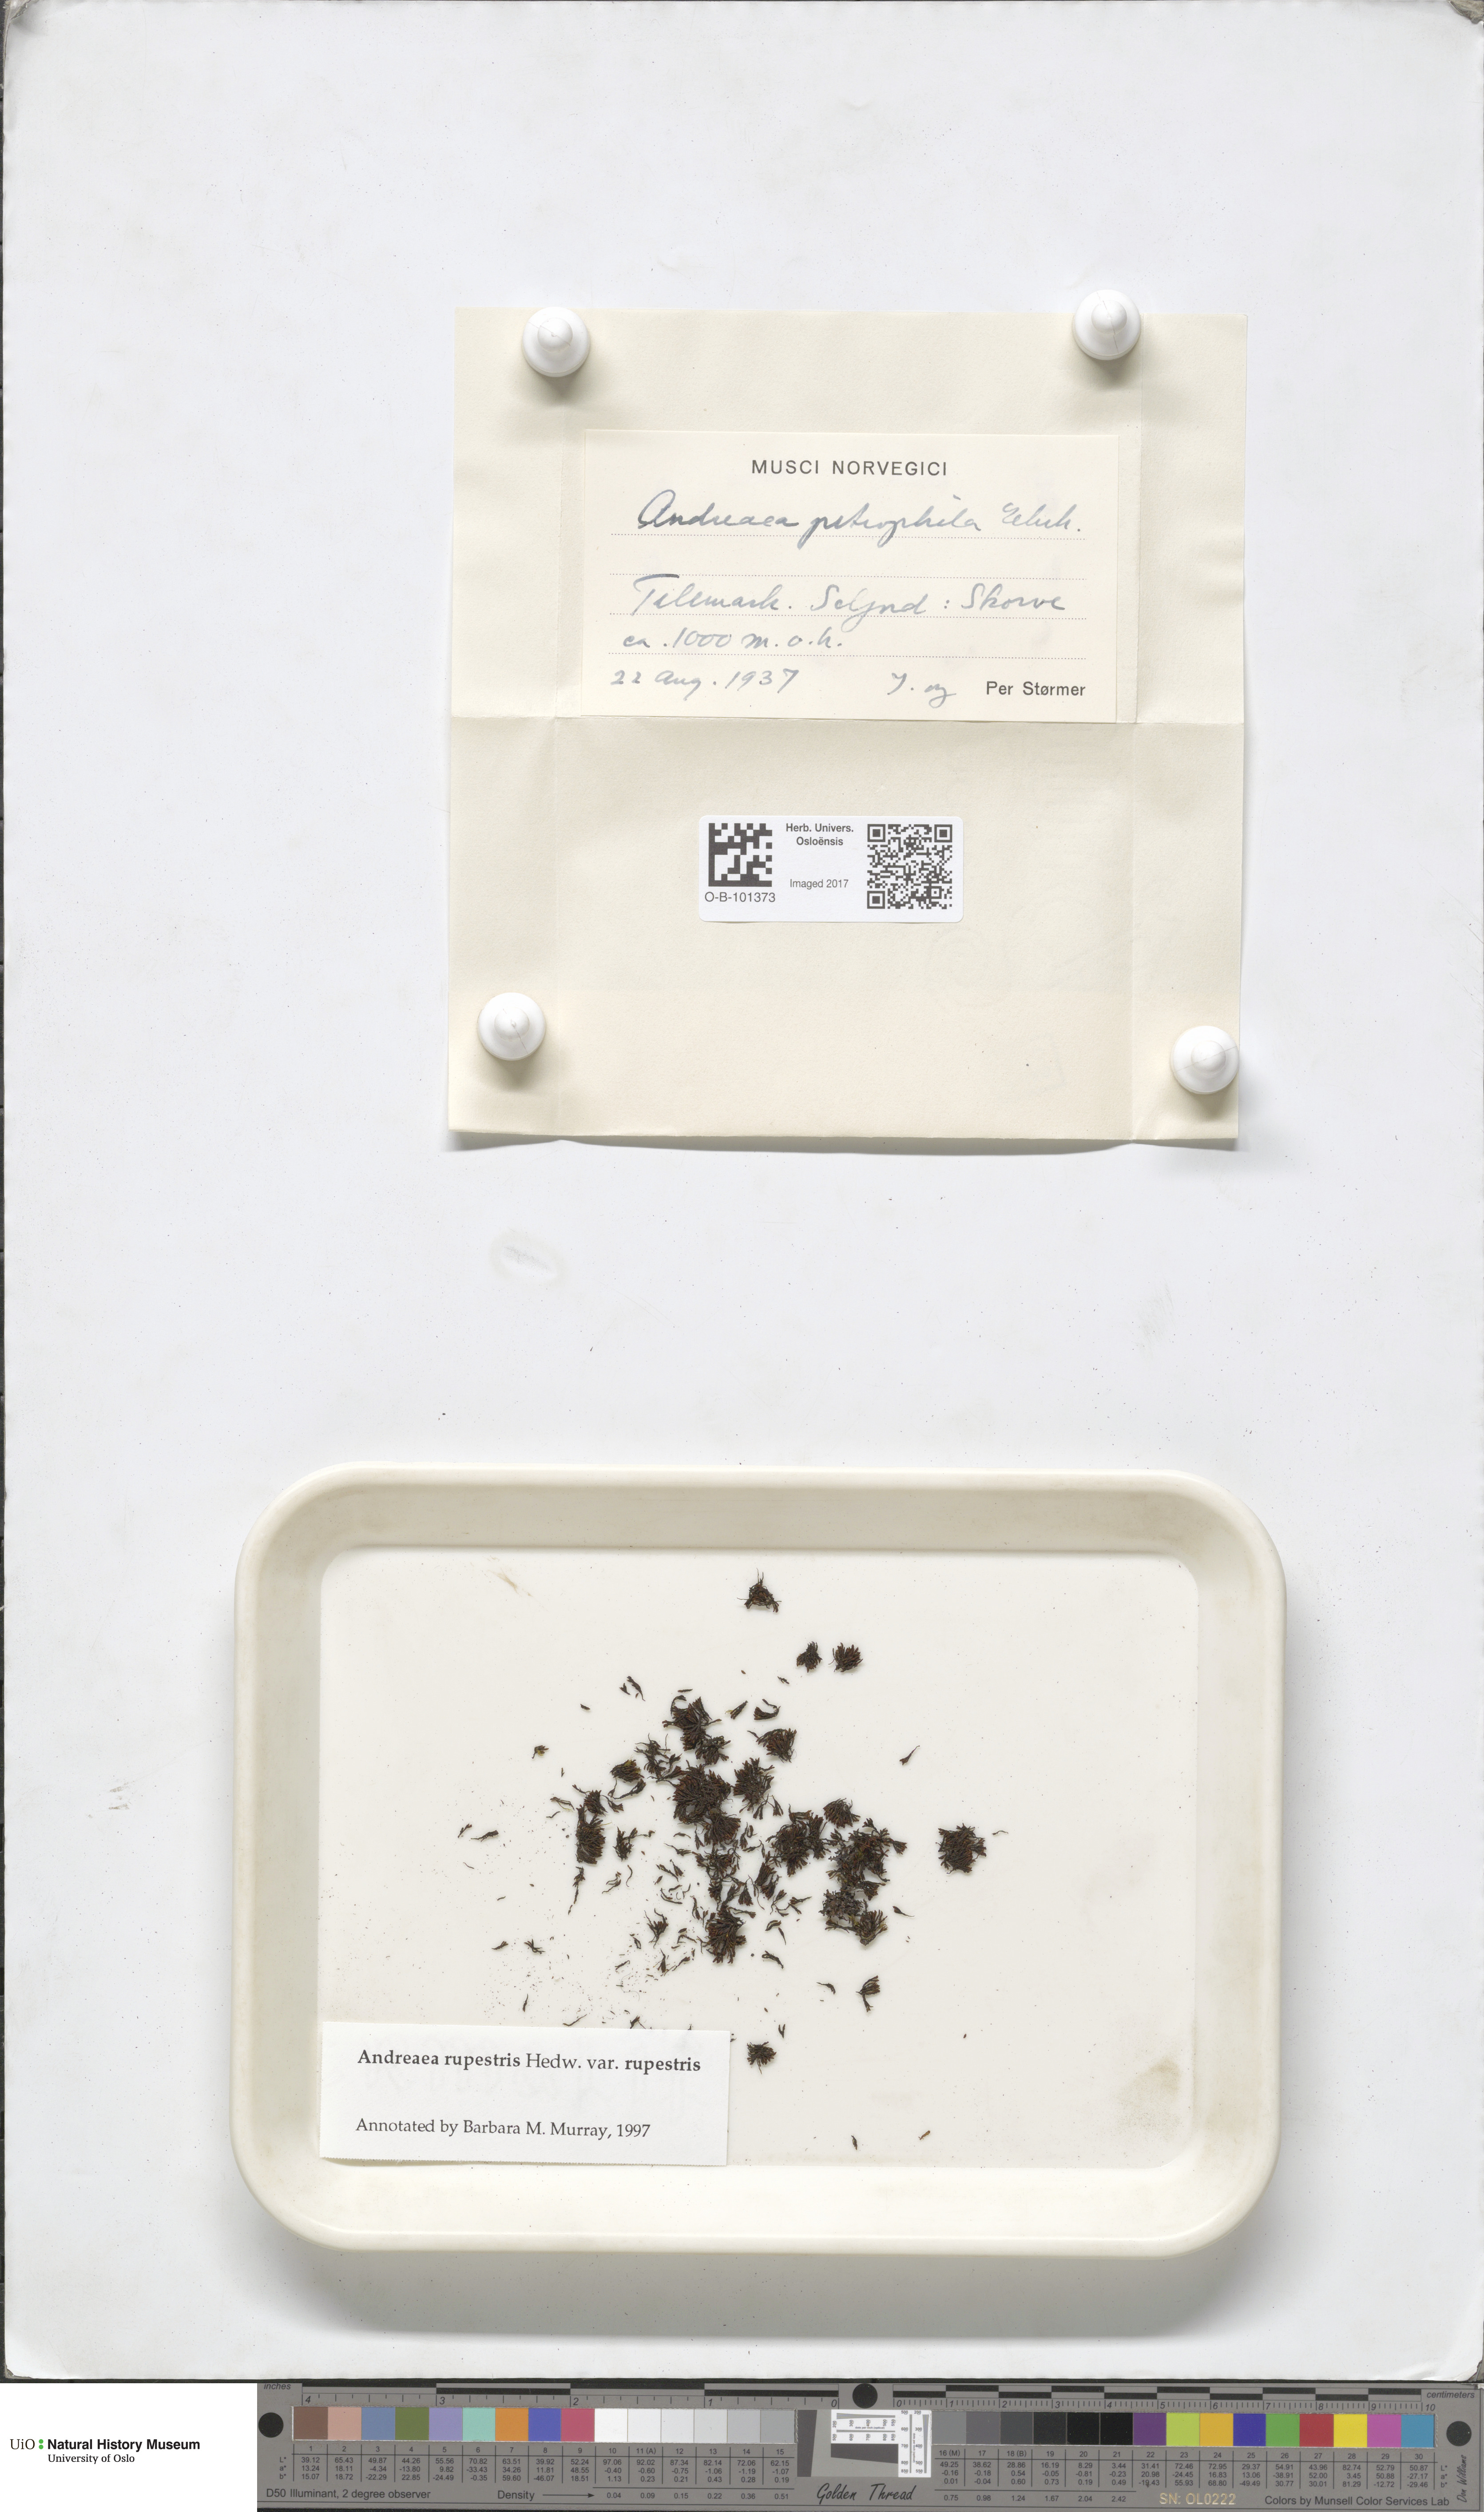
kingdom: Plantae
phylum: Bryophyta
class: Andreaeopsida
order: Andreaeales
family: Andreaeaceae
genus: Andreaea
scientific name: Andreaea rupestris
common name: Black rock moss
